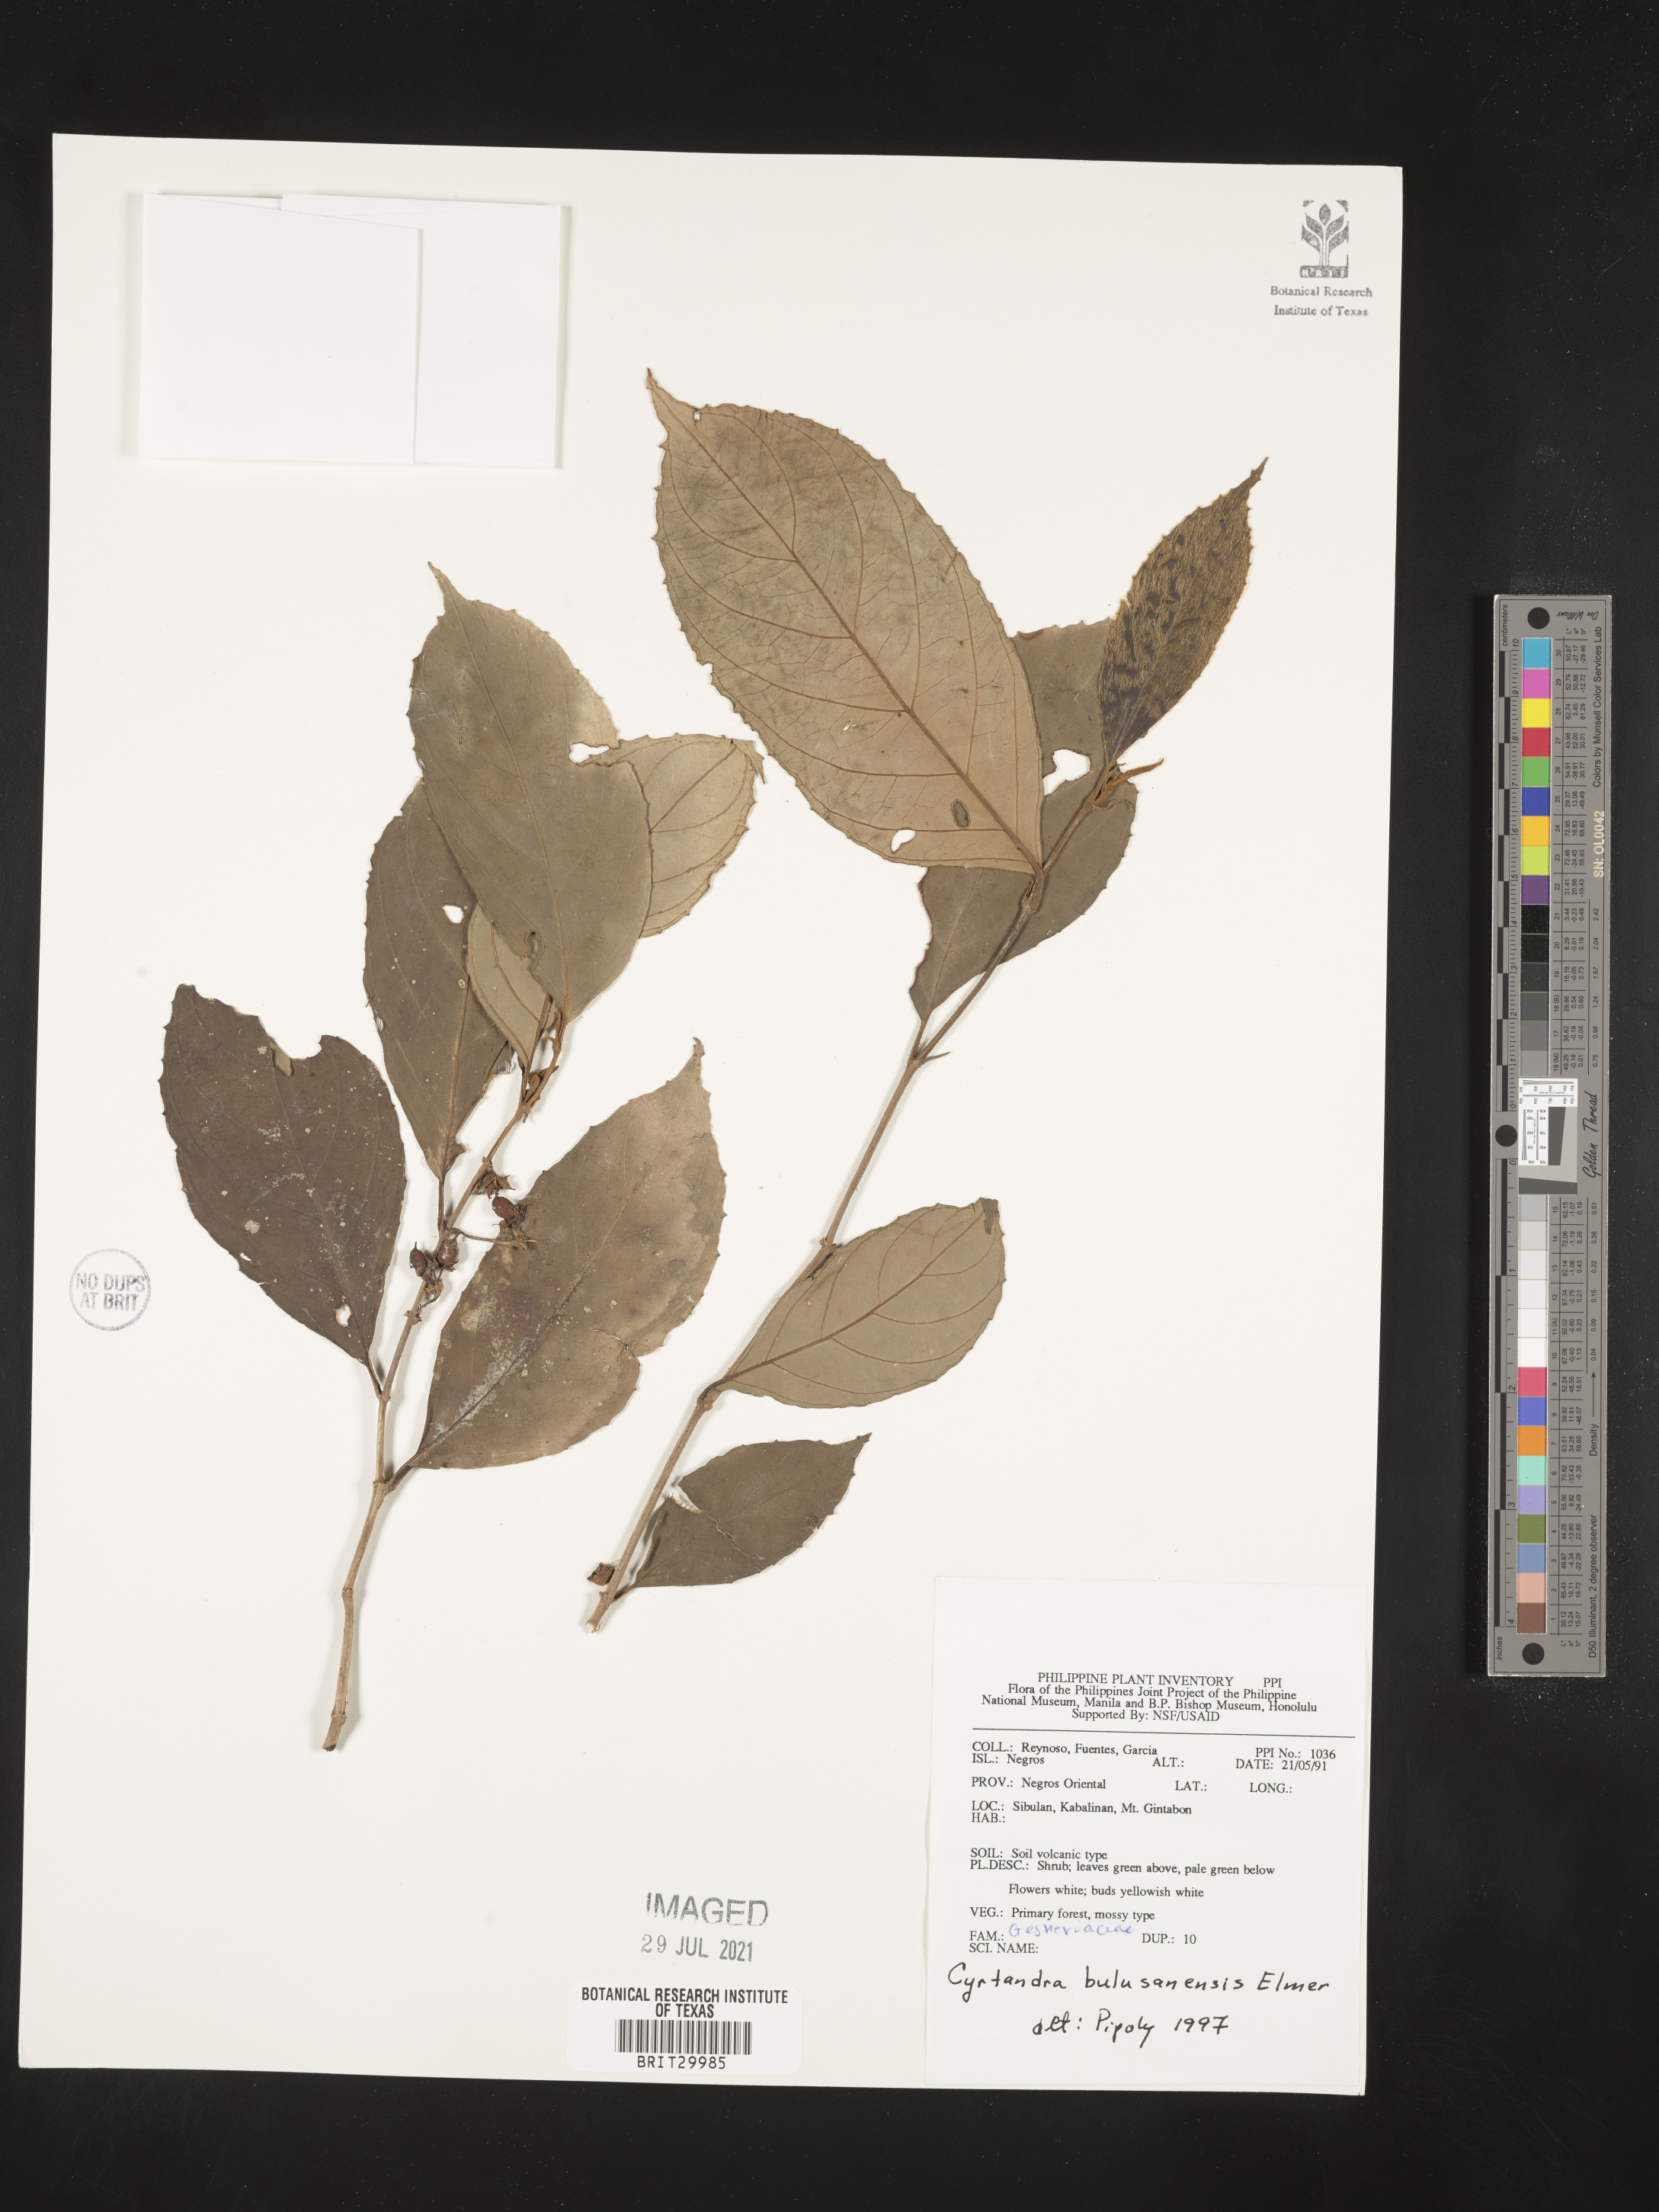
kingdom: Plantae
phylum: Tracheophyta
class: Magnoliopsida
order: Lamiales
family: Gesneriaceae
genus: Cyrtandra
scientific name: Cyrtandra callicarpifolia
